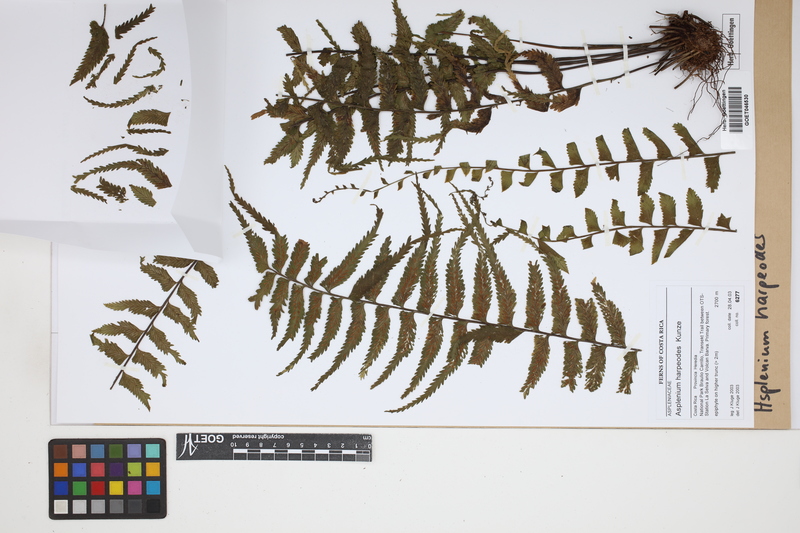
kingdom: Plantae
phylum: Tracheophyta
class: Polypodiopsida
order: Polypodiales
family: Aspleniaceae
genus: Asplenium
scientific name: Asplenium harpeodes
